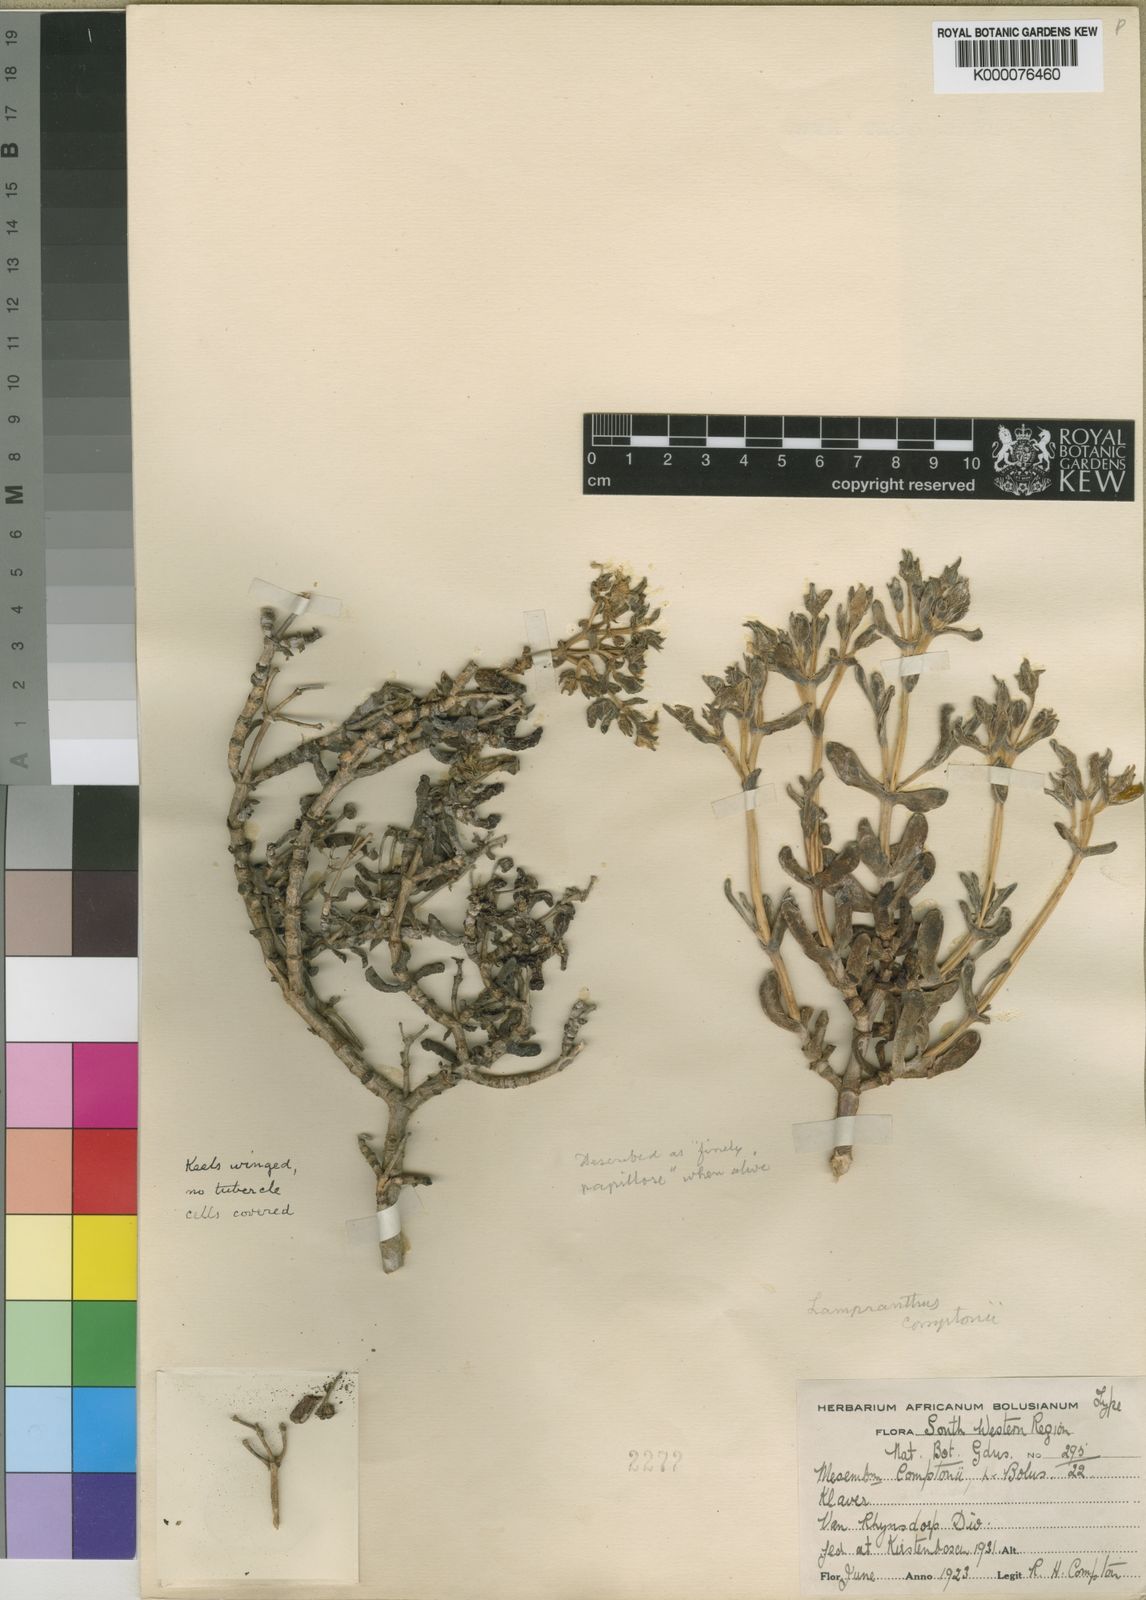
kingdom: Plantae
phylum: Tracheophyta
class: Magnoliopsida
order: Caryophyllales
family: Aizoaceae
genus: Oscularia
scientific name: Oscularia comptonii
